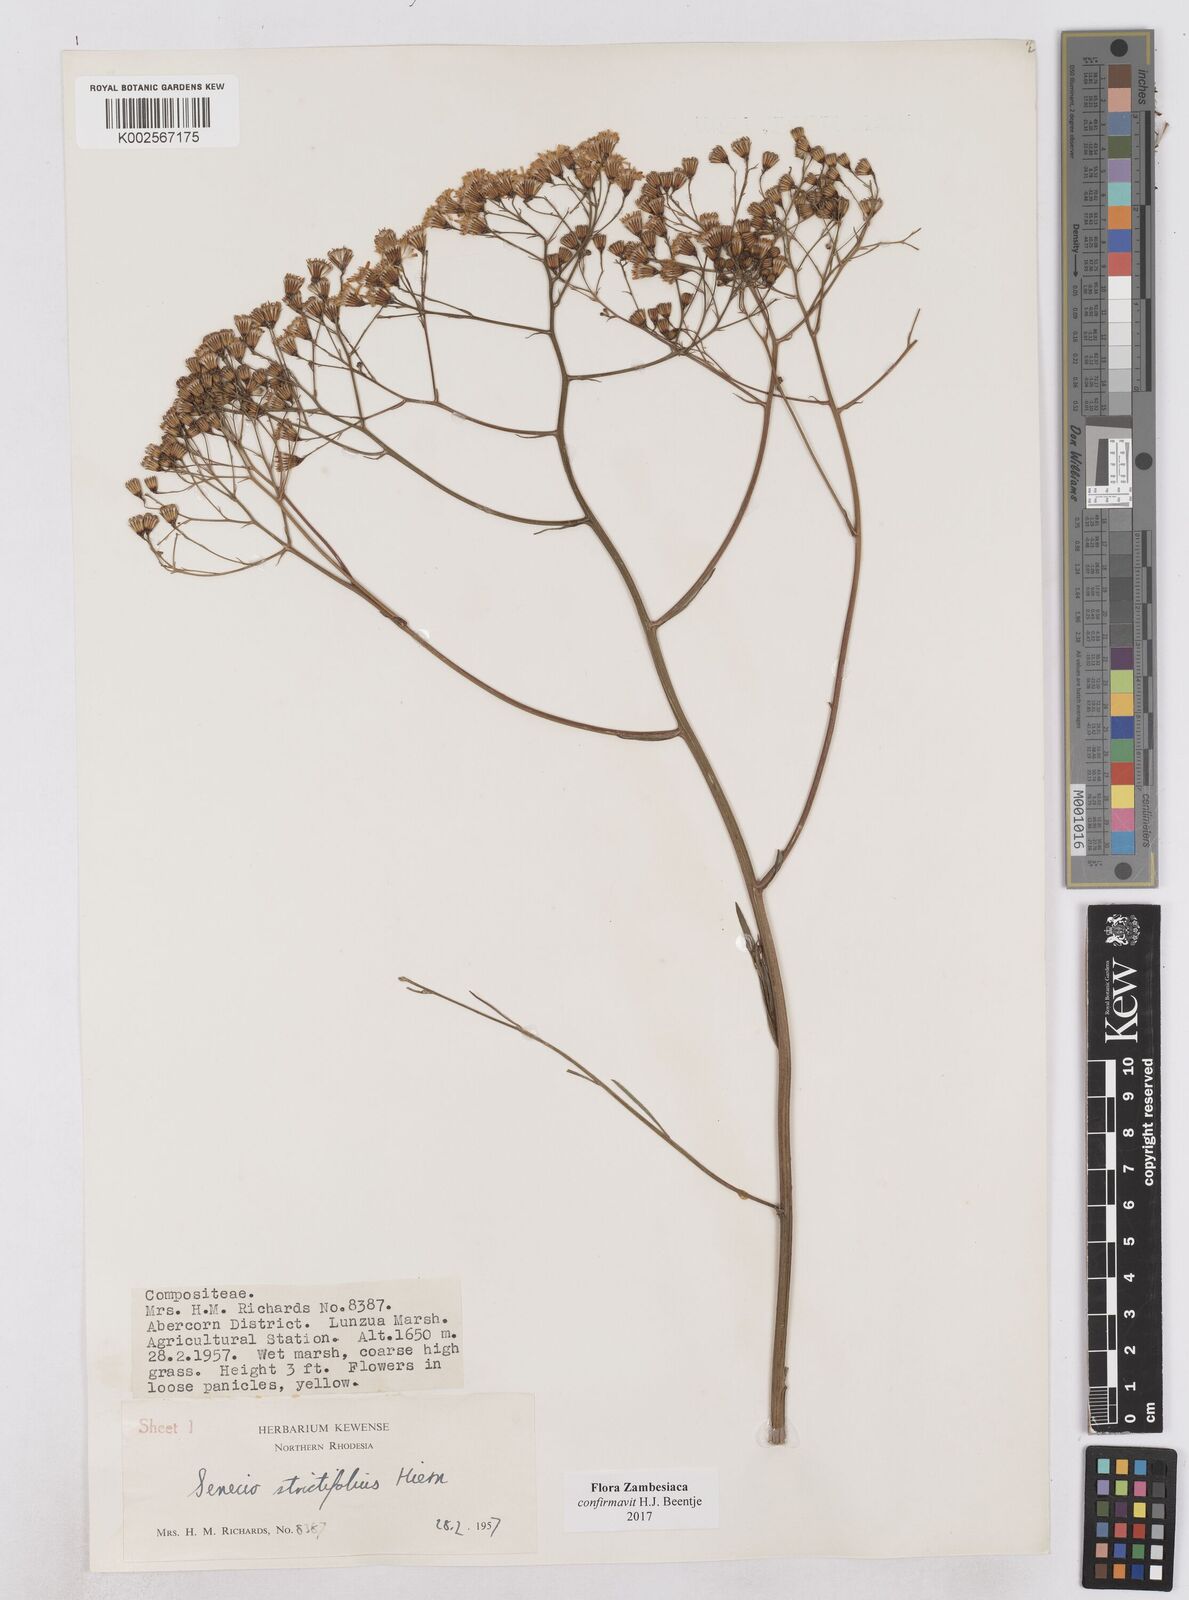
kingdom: Plantae
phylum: Tracheophyta
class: Magnoliopsida
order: Asterales
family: Asteraceae
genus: Senecio
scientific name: Senecio strictifolius
